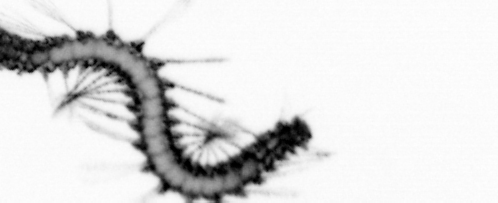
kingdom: Animalia
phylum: Annelida
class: Polychaeta
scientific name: Polychaeta
